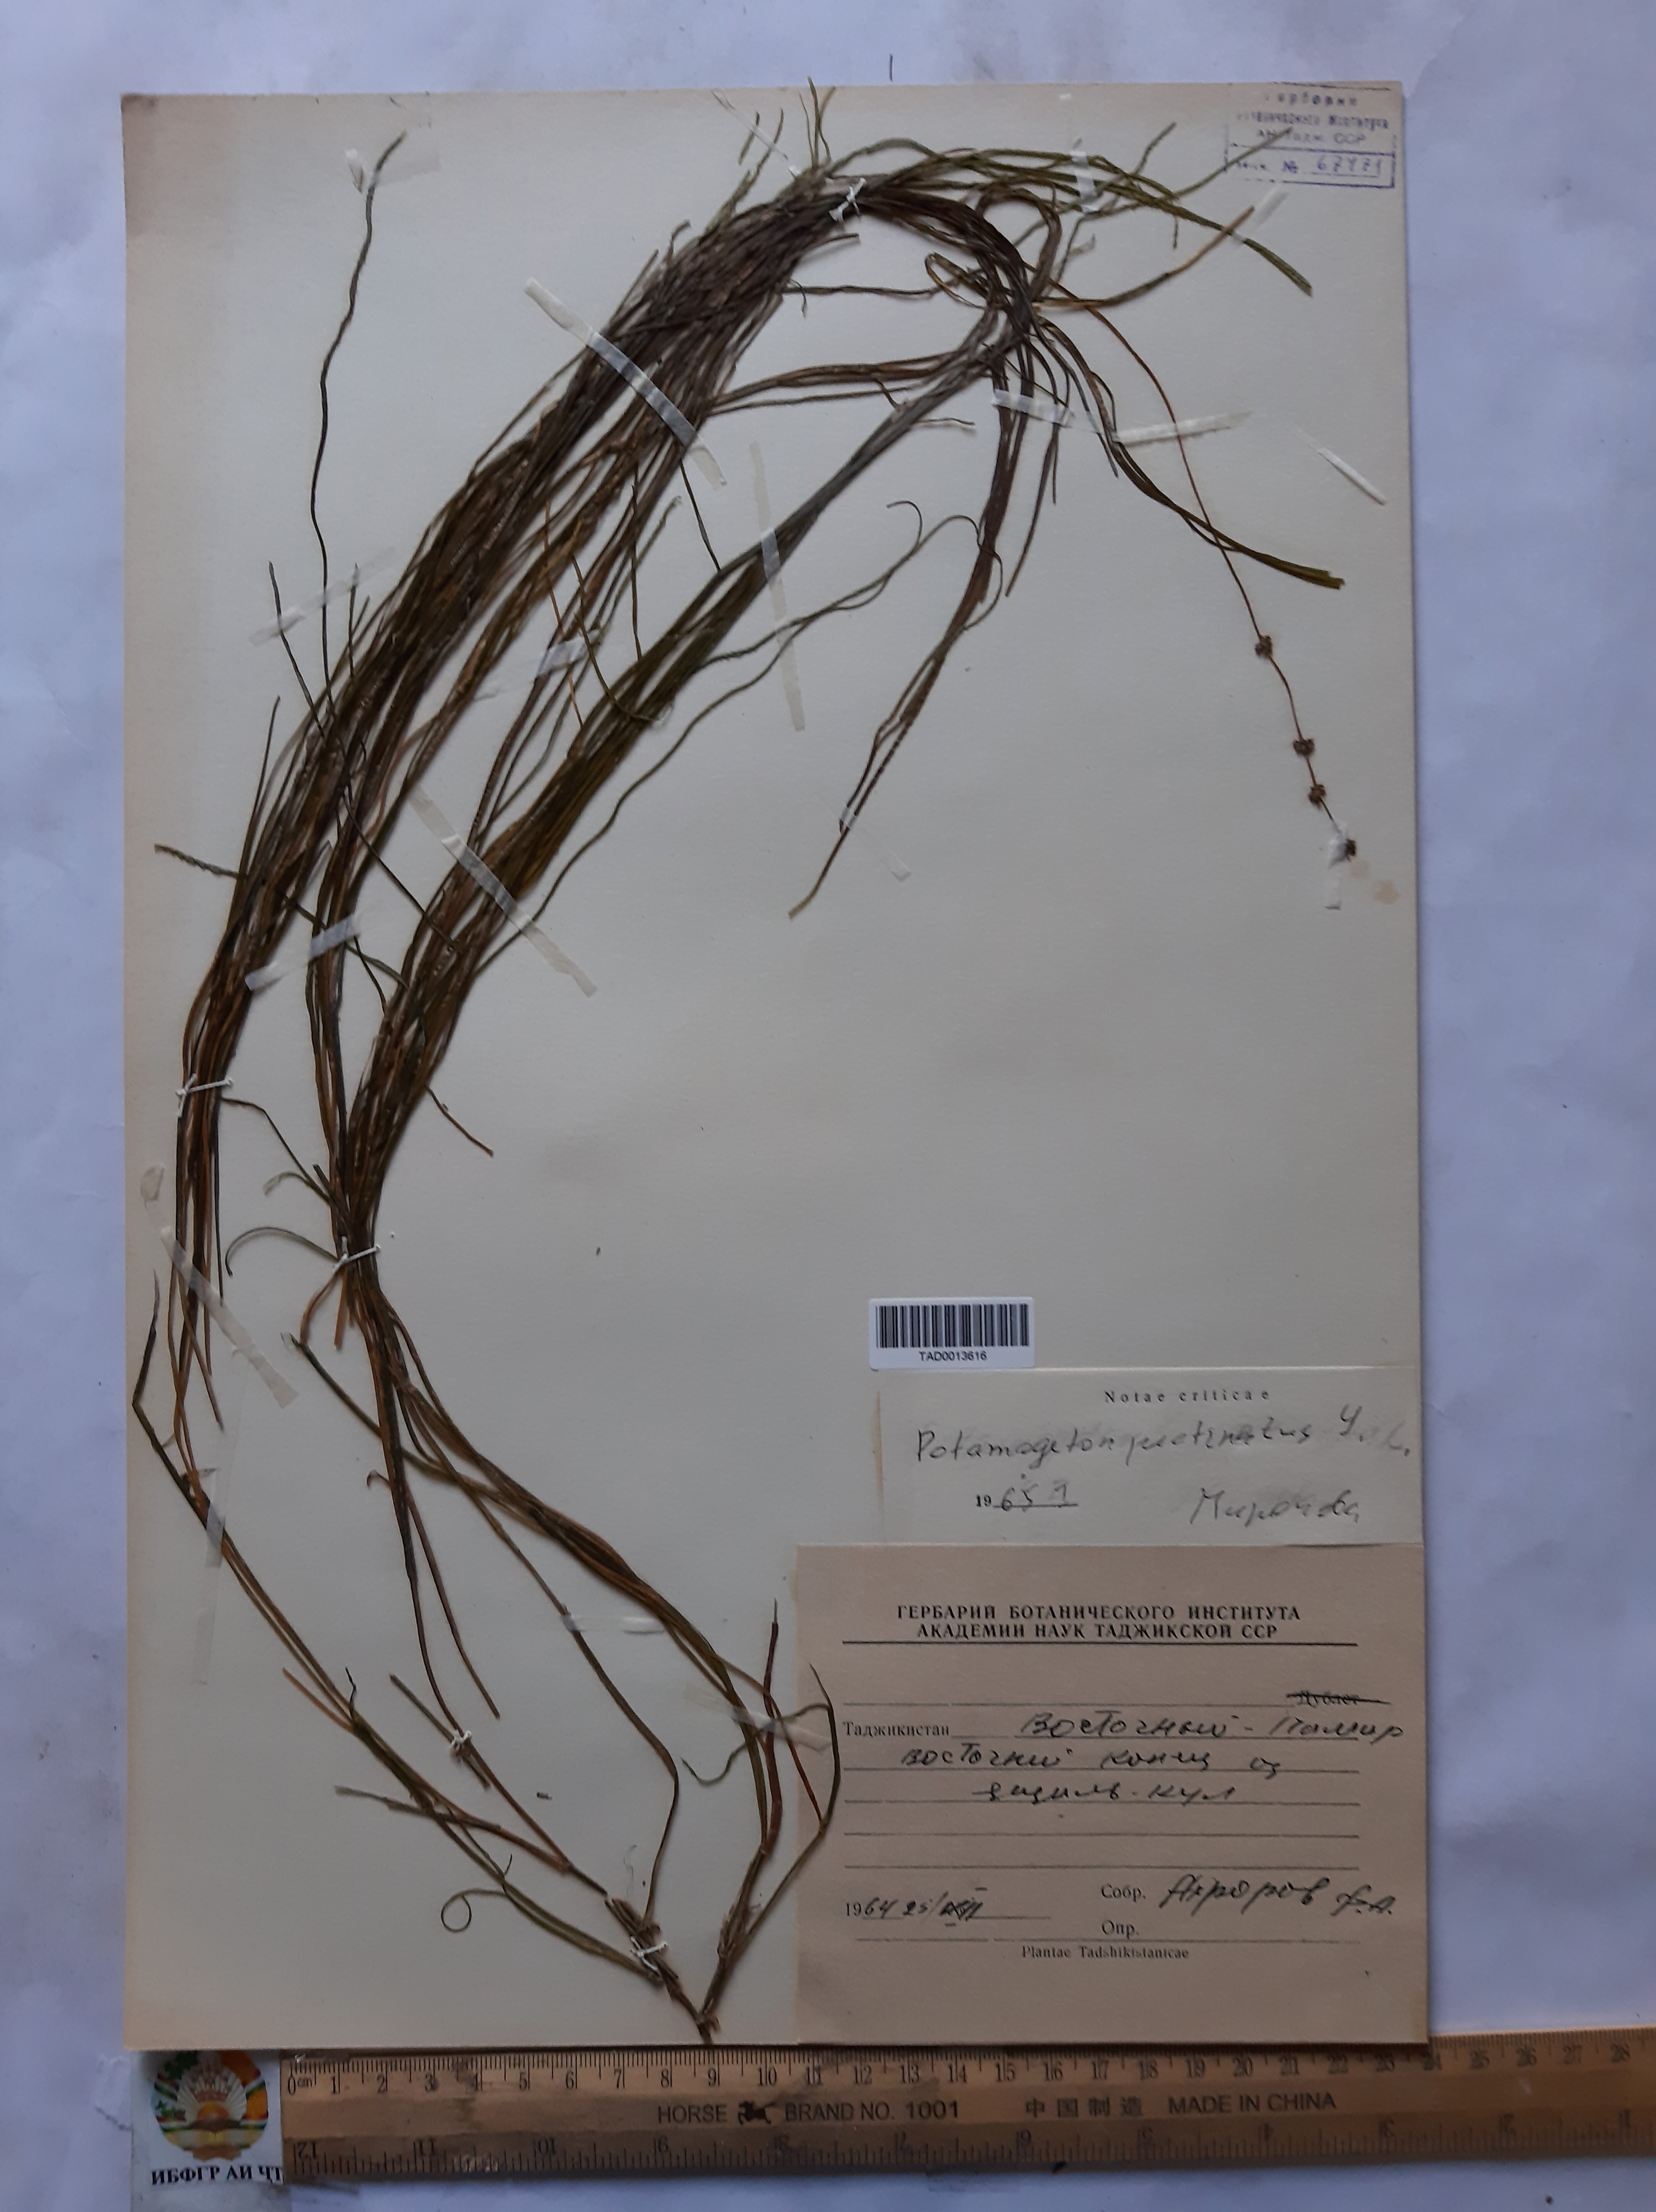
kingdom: Plantae
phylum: Tracheophyta
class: Liliopsida
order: Alismatales
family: Potamogetonaceae
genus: Stuckenia
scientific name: Stuckenia pectinata
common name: Sago pondweed
